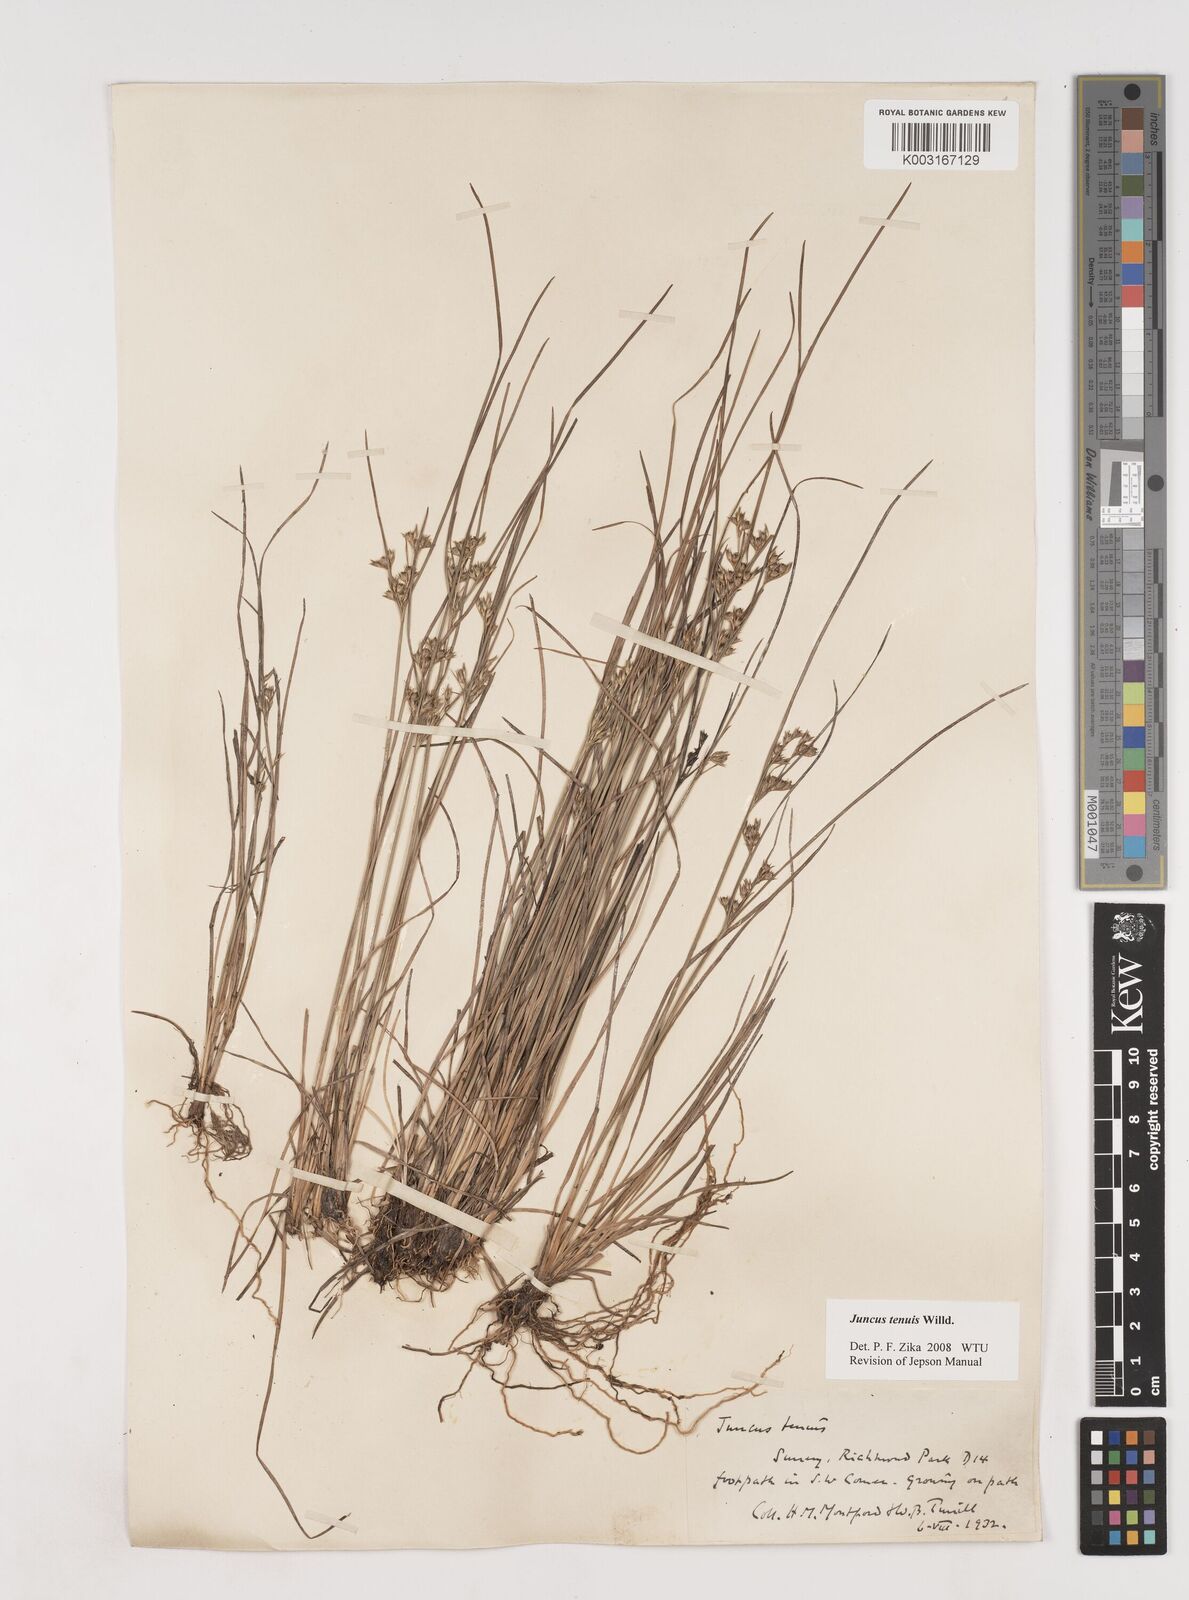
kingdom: Plantae
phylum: Tracheophyta
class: Liliopsida
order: Poales
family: Juncaceae
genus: Juncus
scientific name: Juncus tenuis
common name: Slender rush
